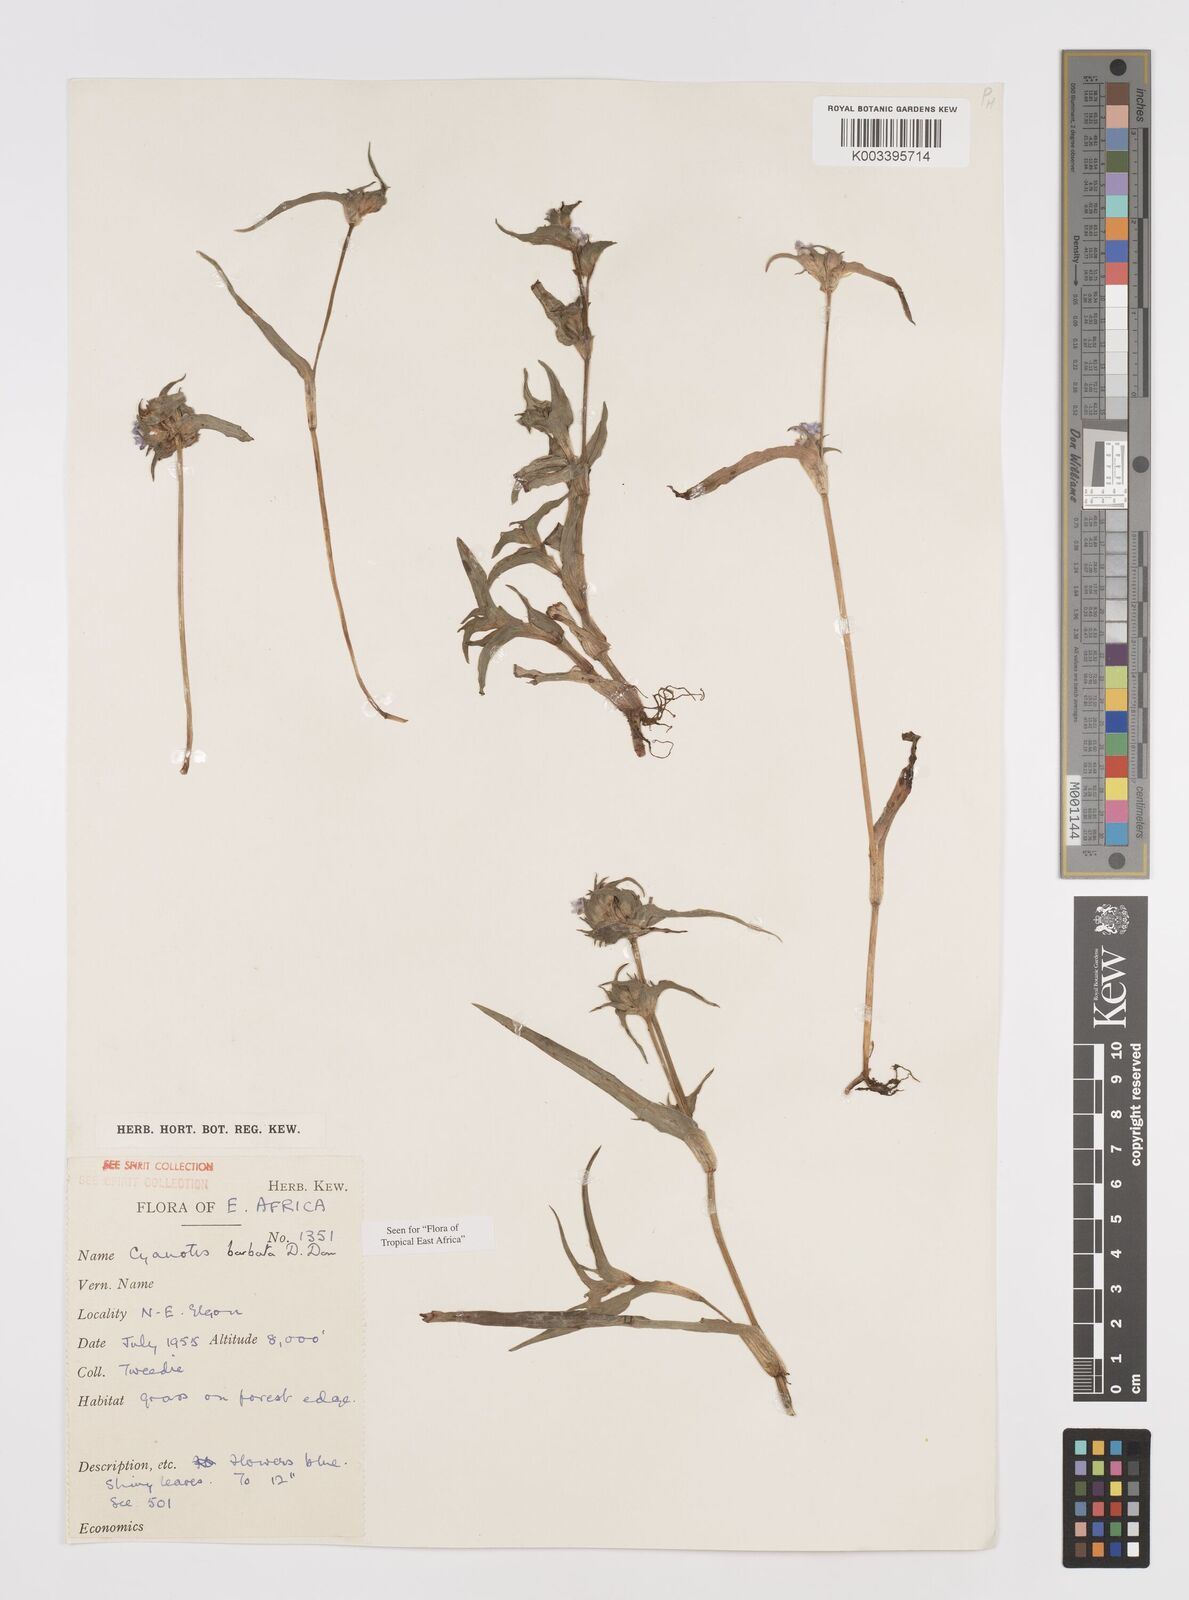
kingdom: Plantae
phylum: Tracheophyta
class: Liliopsida
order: Commelinales
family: Commelinaceae
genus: Cyanotis
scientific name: Cyanotis vaga
